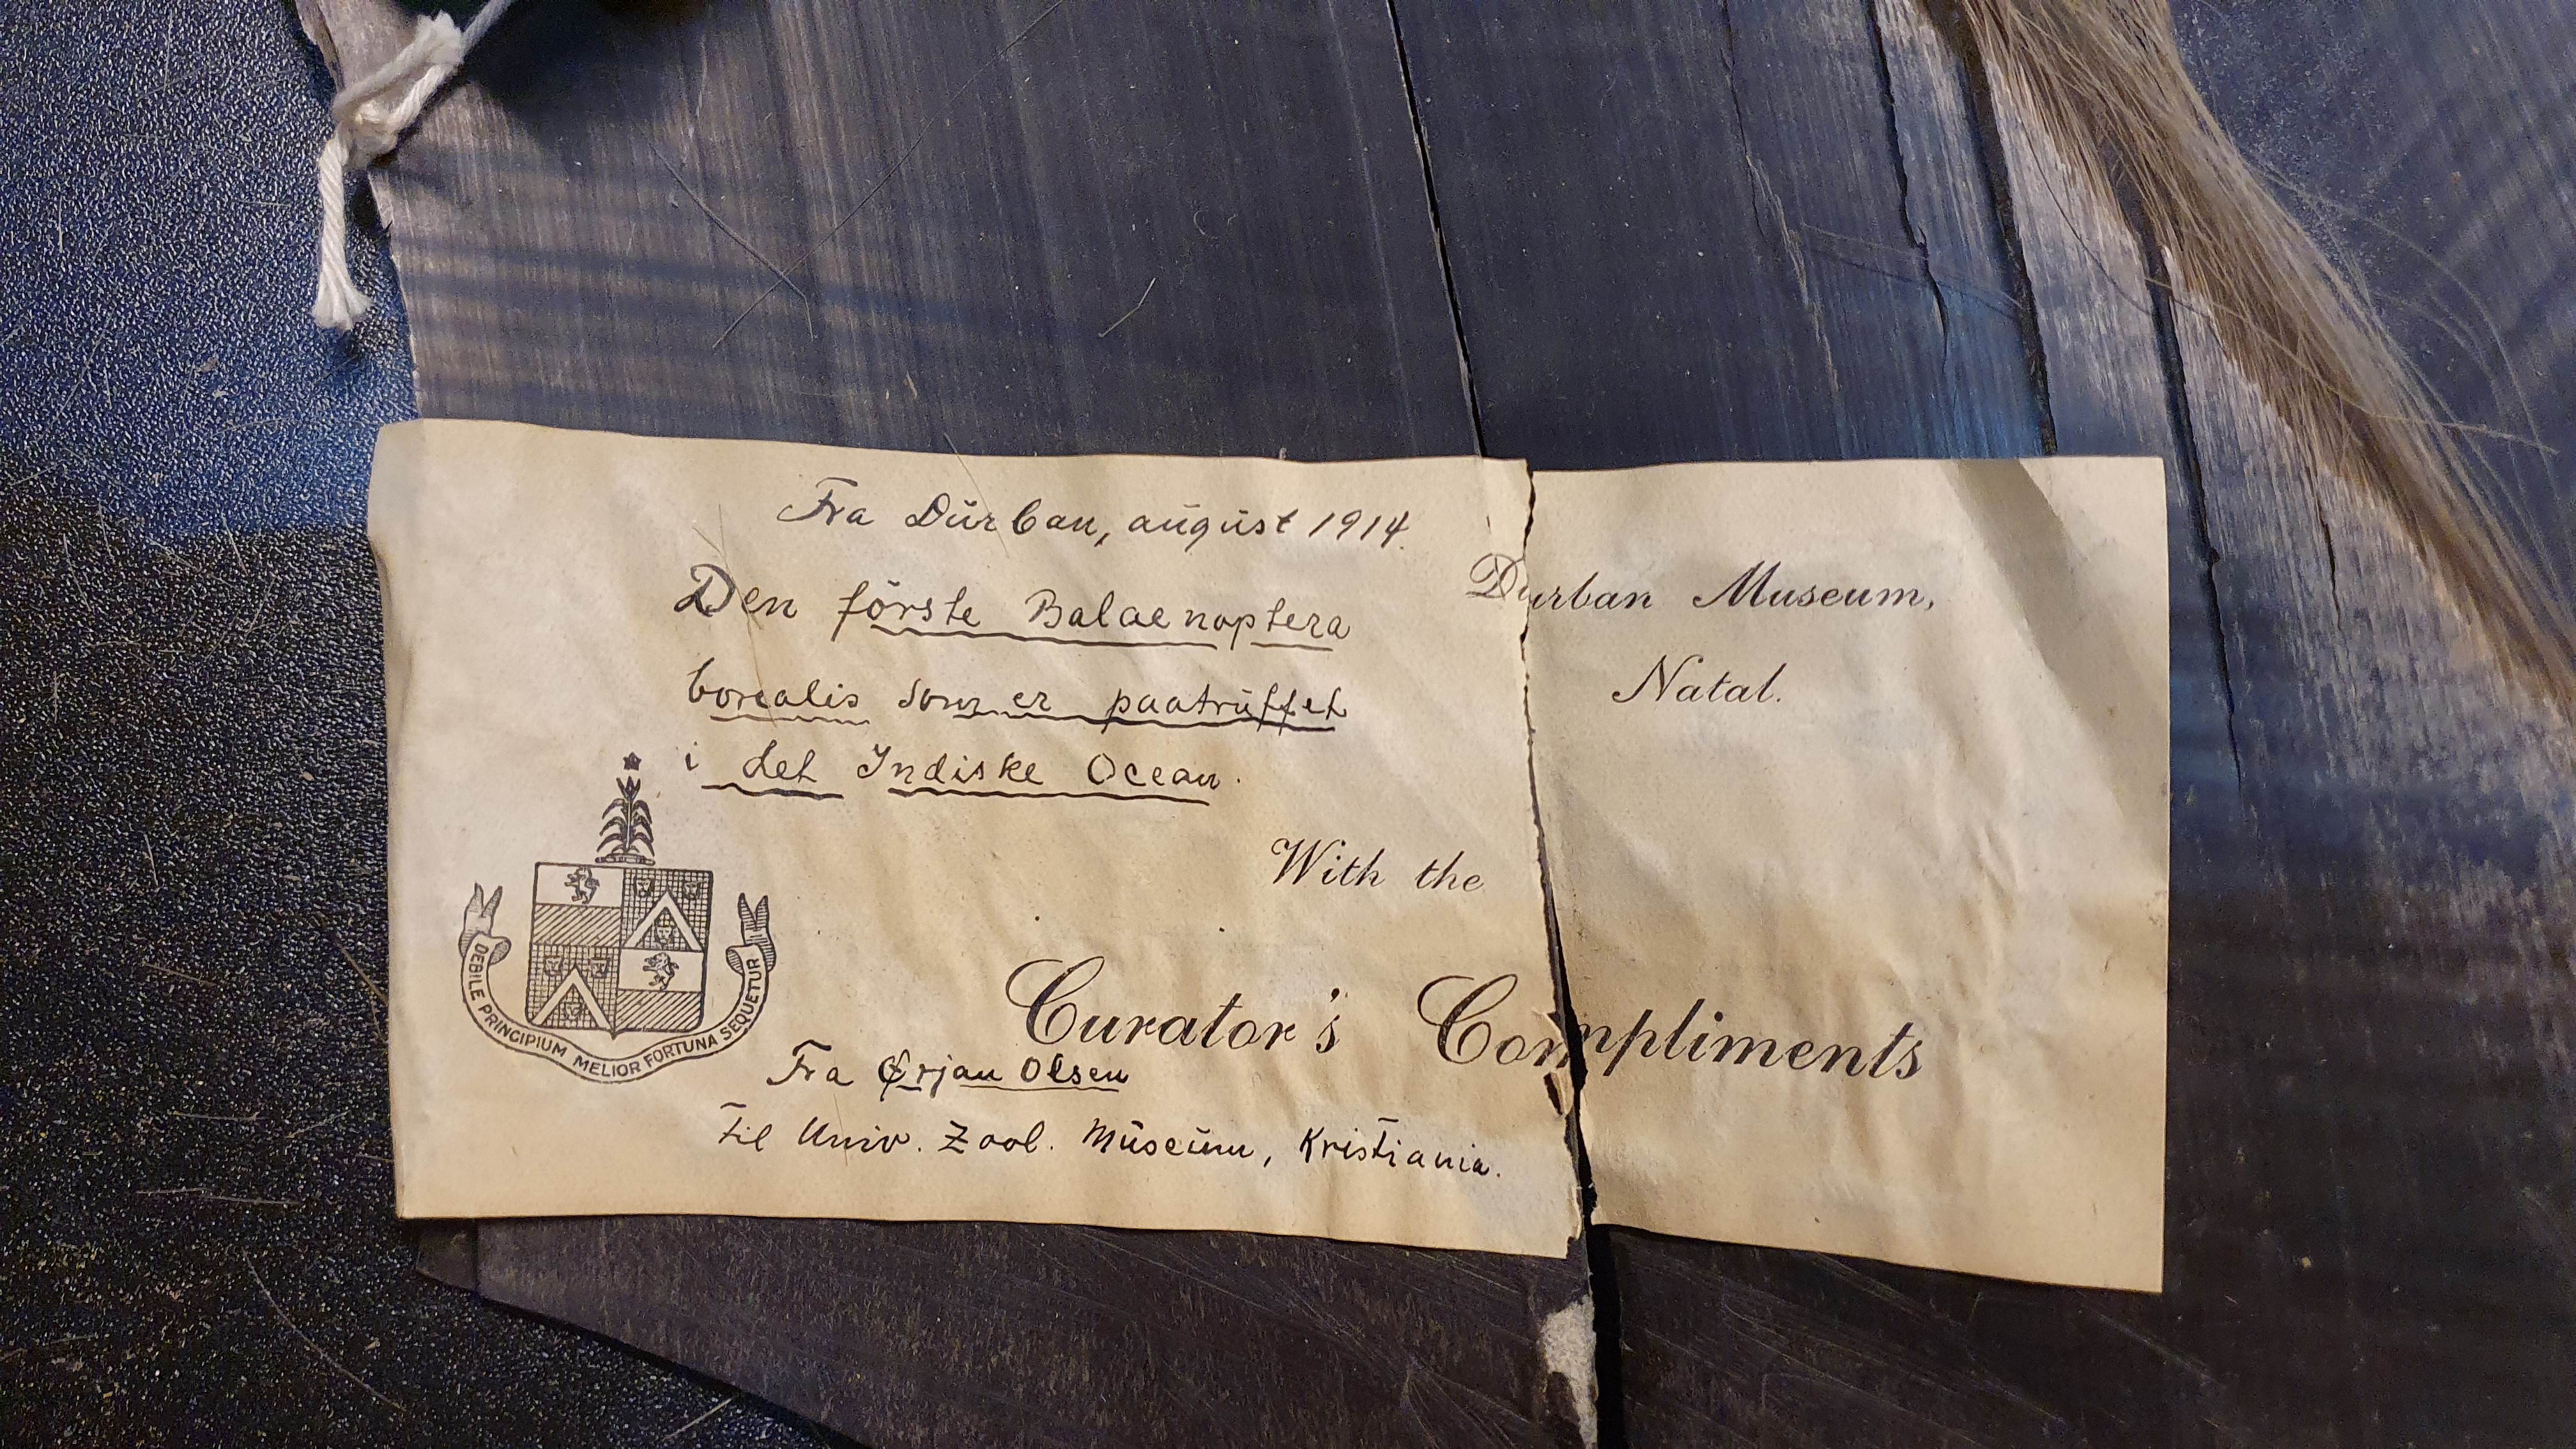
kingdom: Animalia
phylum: Chordata
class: Mammalia
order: Cetacea
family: Balaenopteridae
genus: Balaenoptera
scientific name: Balaenoptera borealis
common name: Sei whale
